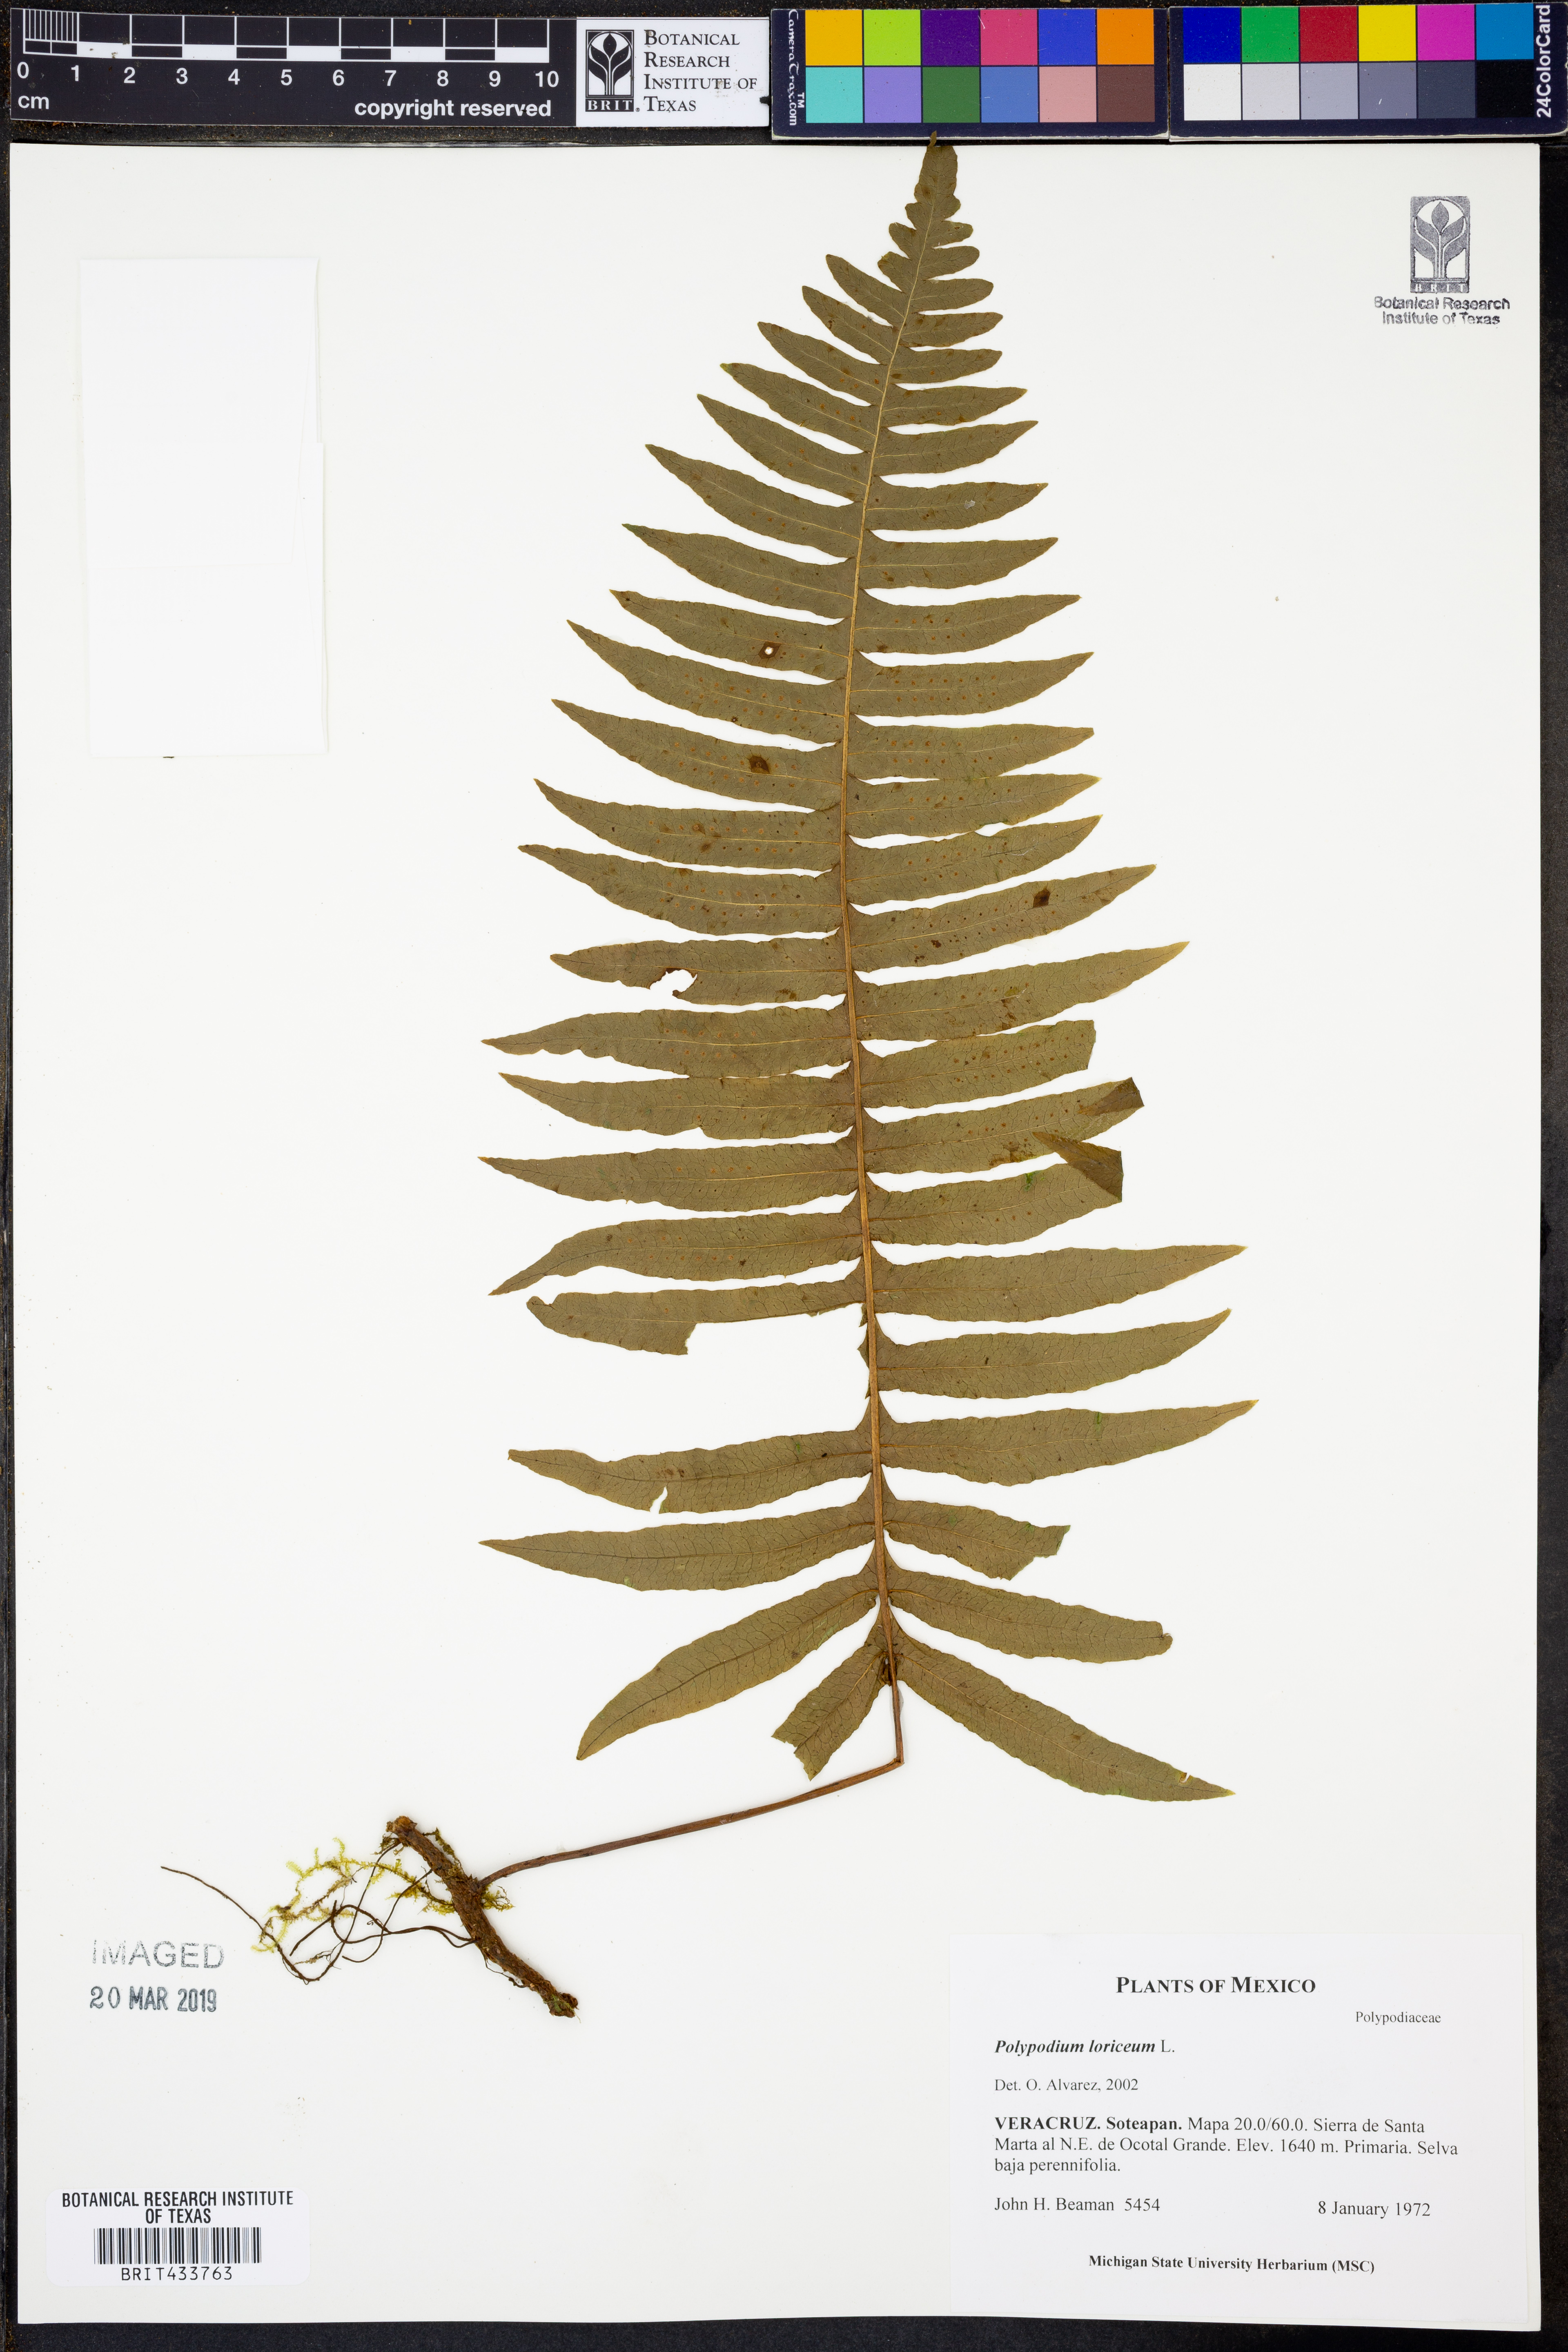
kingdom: Plantae
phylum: Tracheophyta
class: Polypodiopsida
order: Polypodiales
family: Polypodiaceae
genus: Serpocaulon
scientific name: Serpocaulon loriceum
